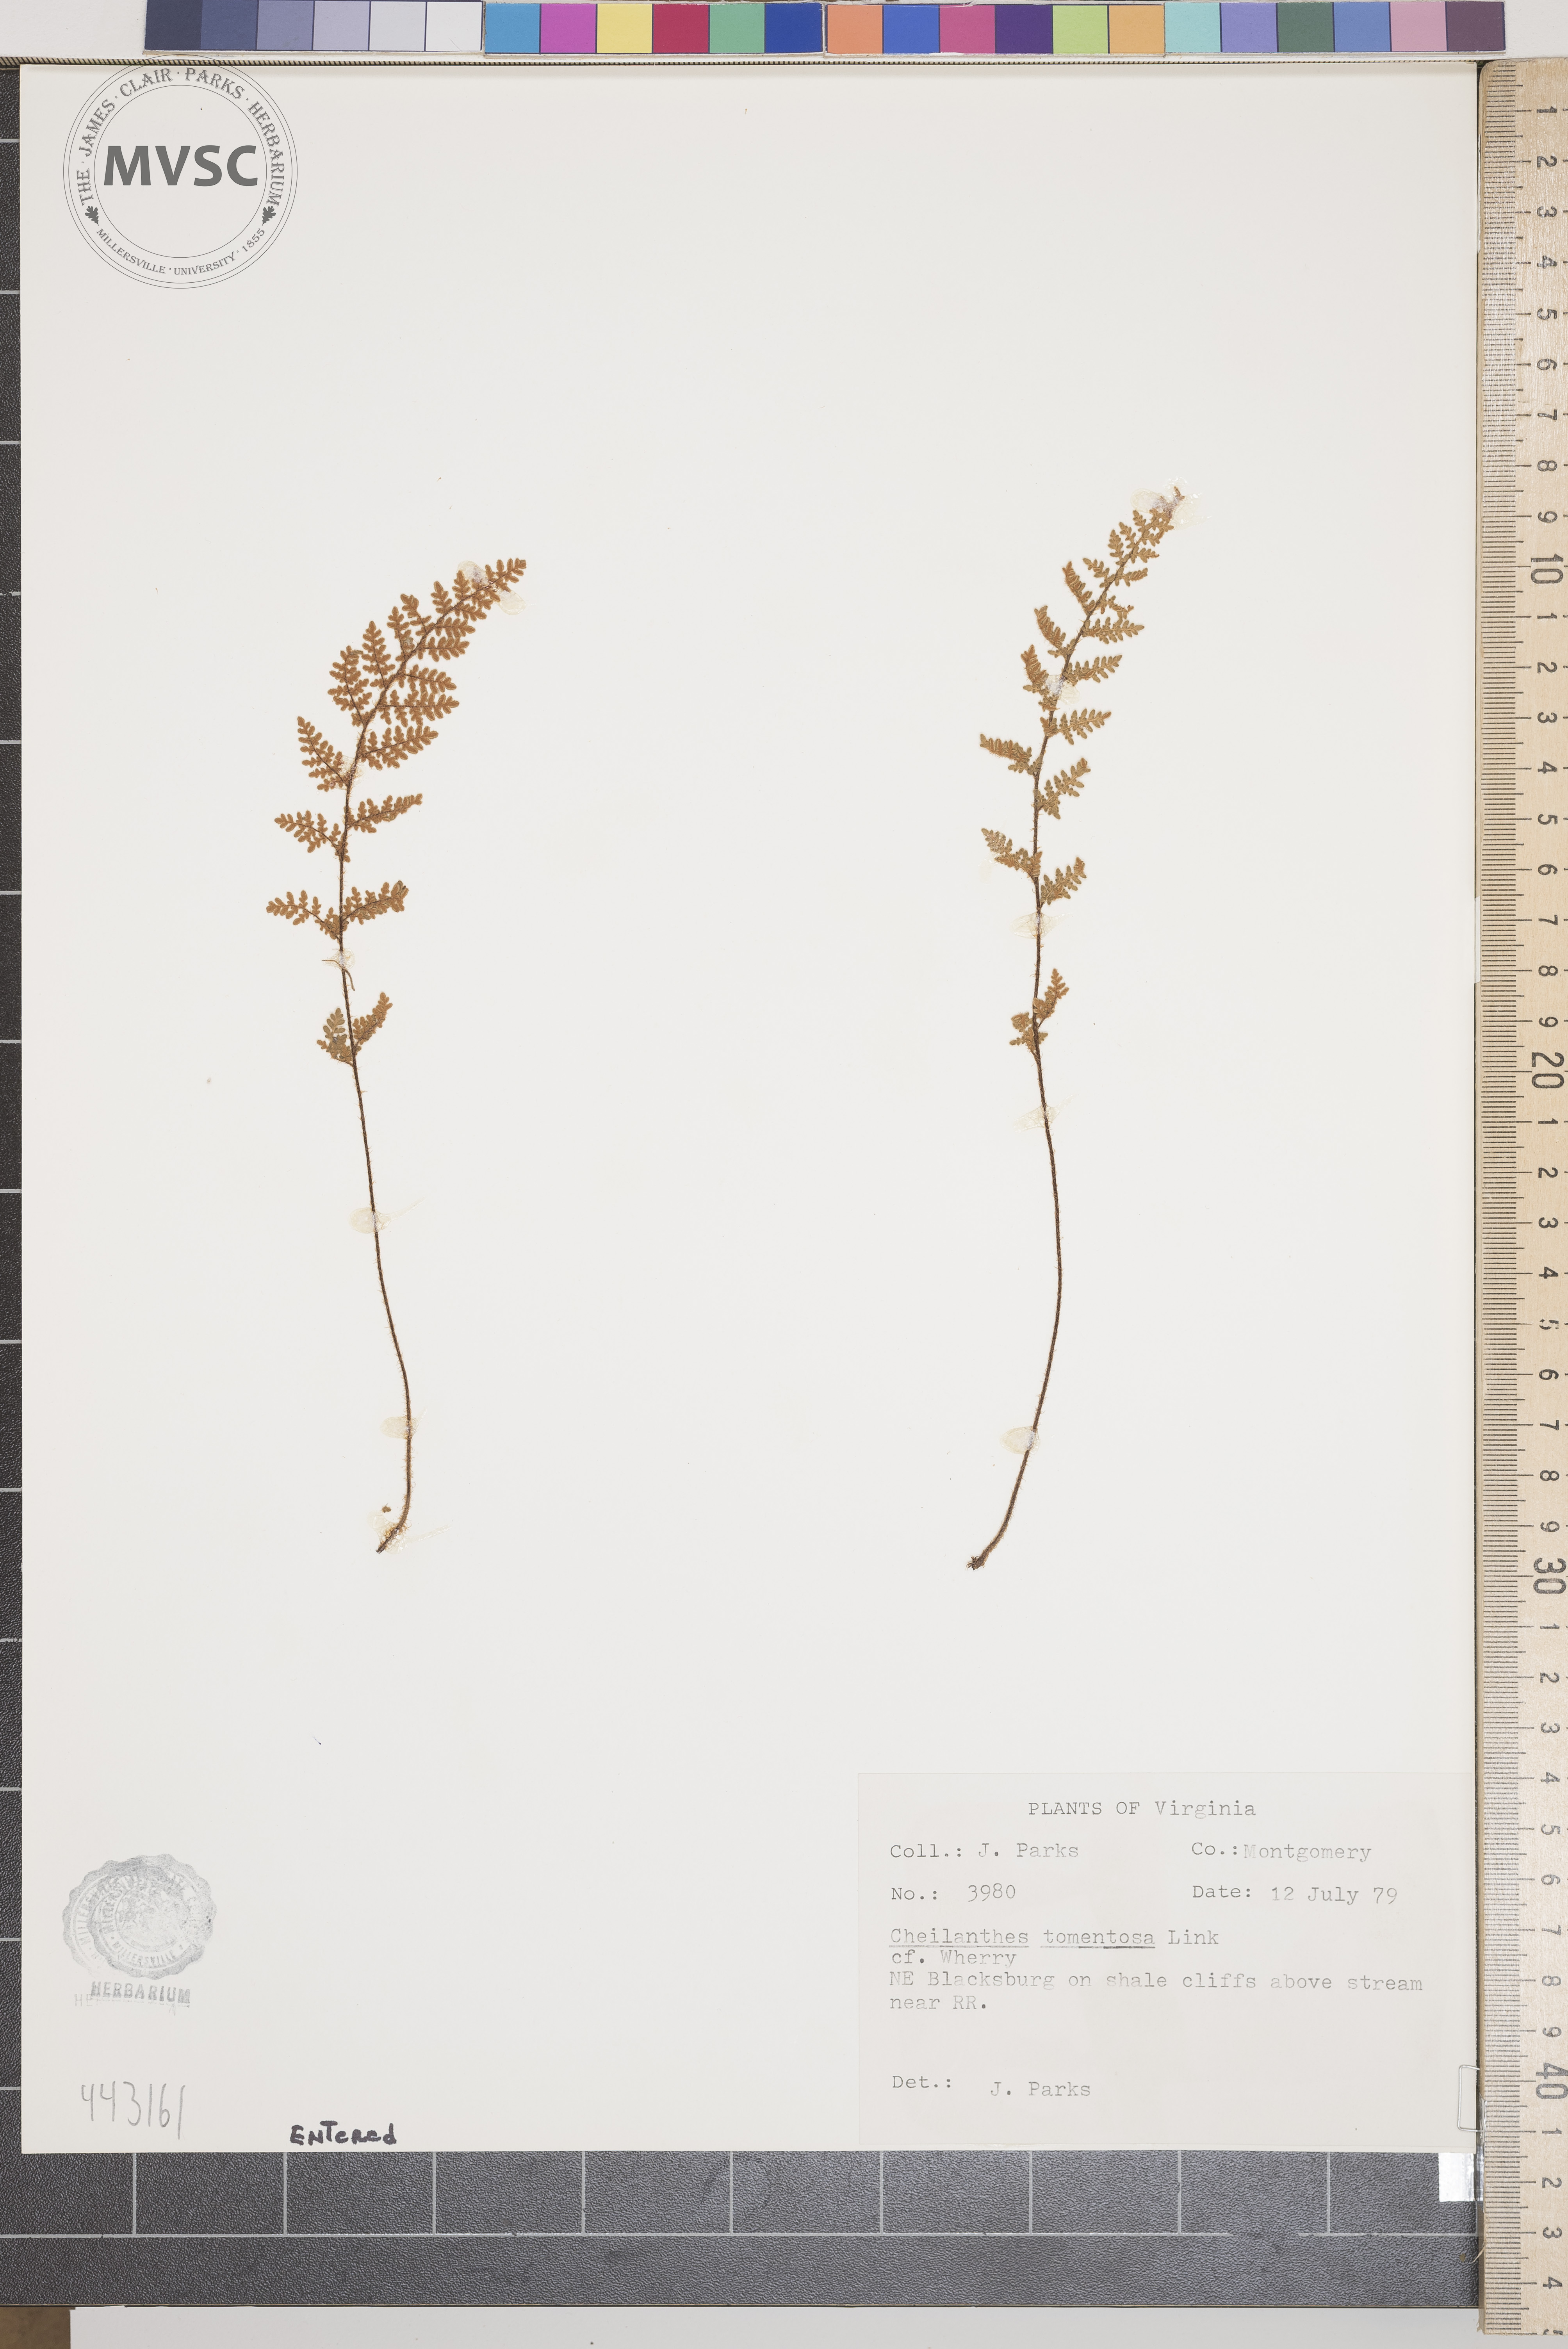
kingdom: Plantae
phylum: Tracheophyta
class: Polypodiopsida
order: Polypodiales
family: Pteridaceae
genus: Myriopteris
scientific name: Myriopteris tomentosa
